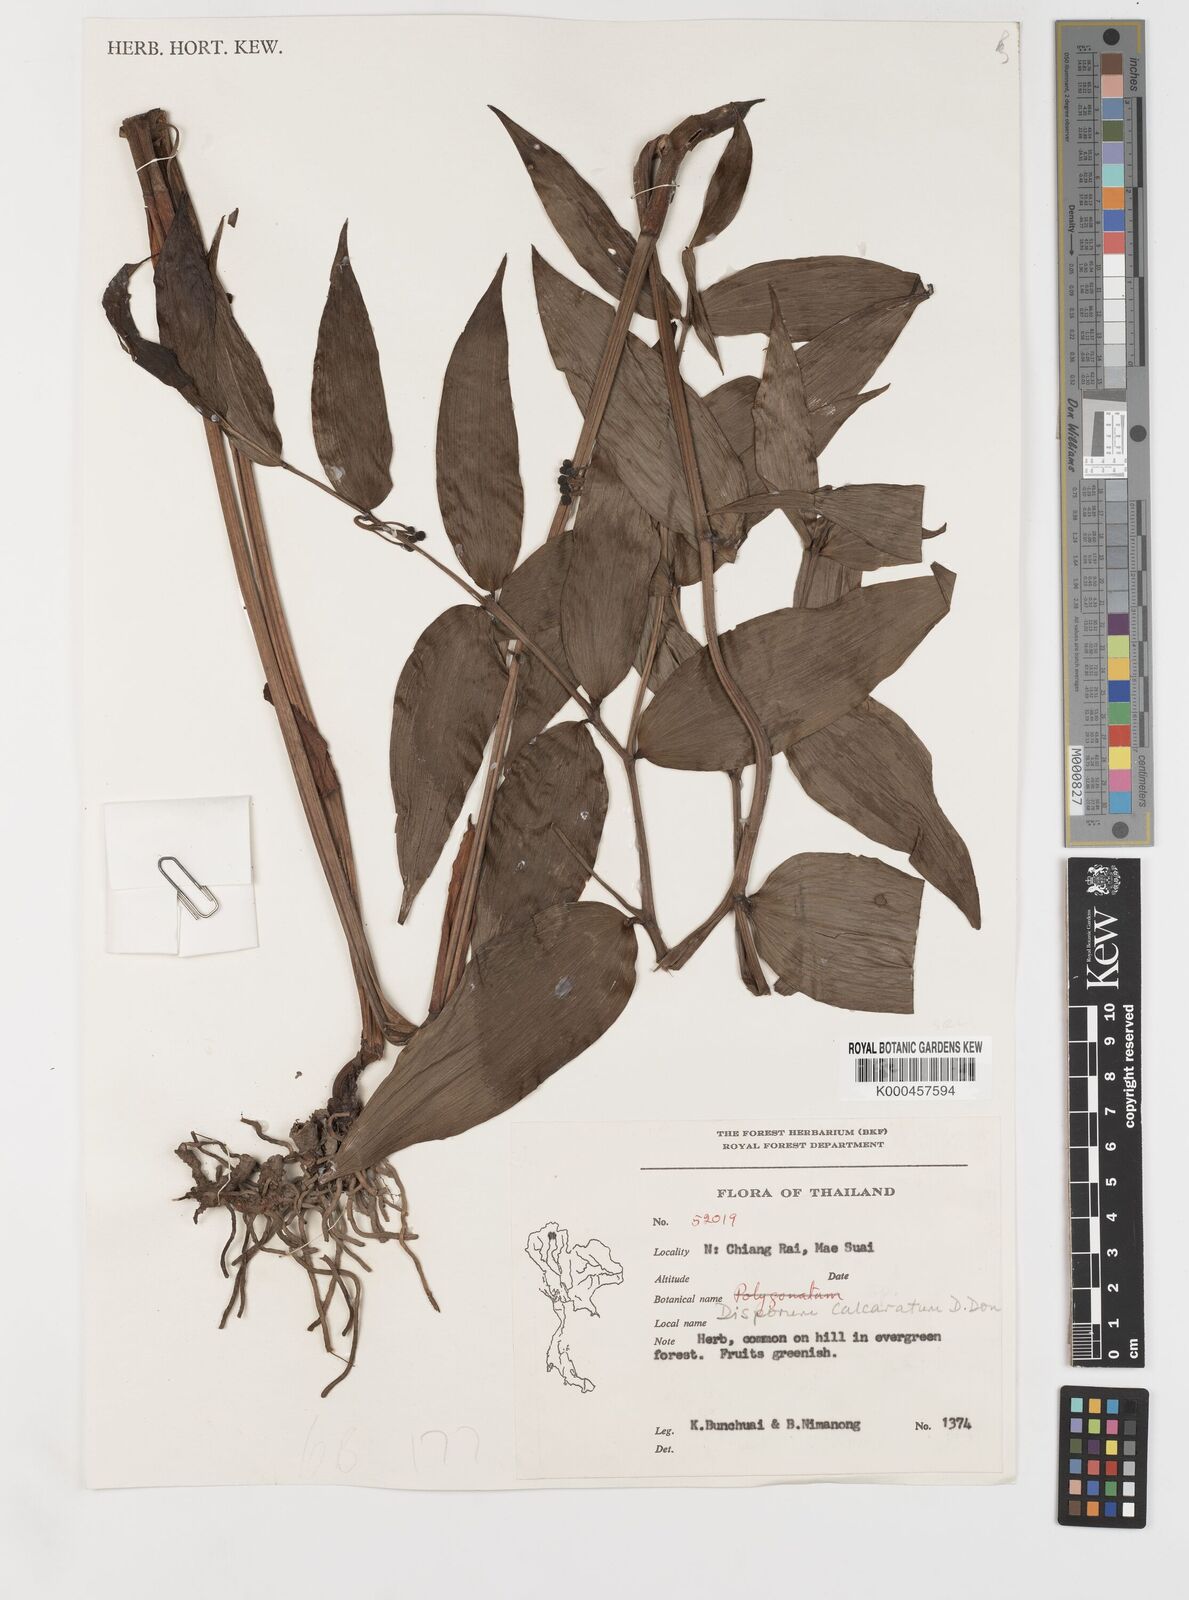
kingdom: Plantae
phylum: Tracheophyta
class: Liliopsida
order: Liliales
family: Colchicaceae
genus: Disporum
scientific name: Disporum calcaratum
